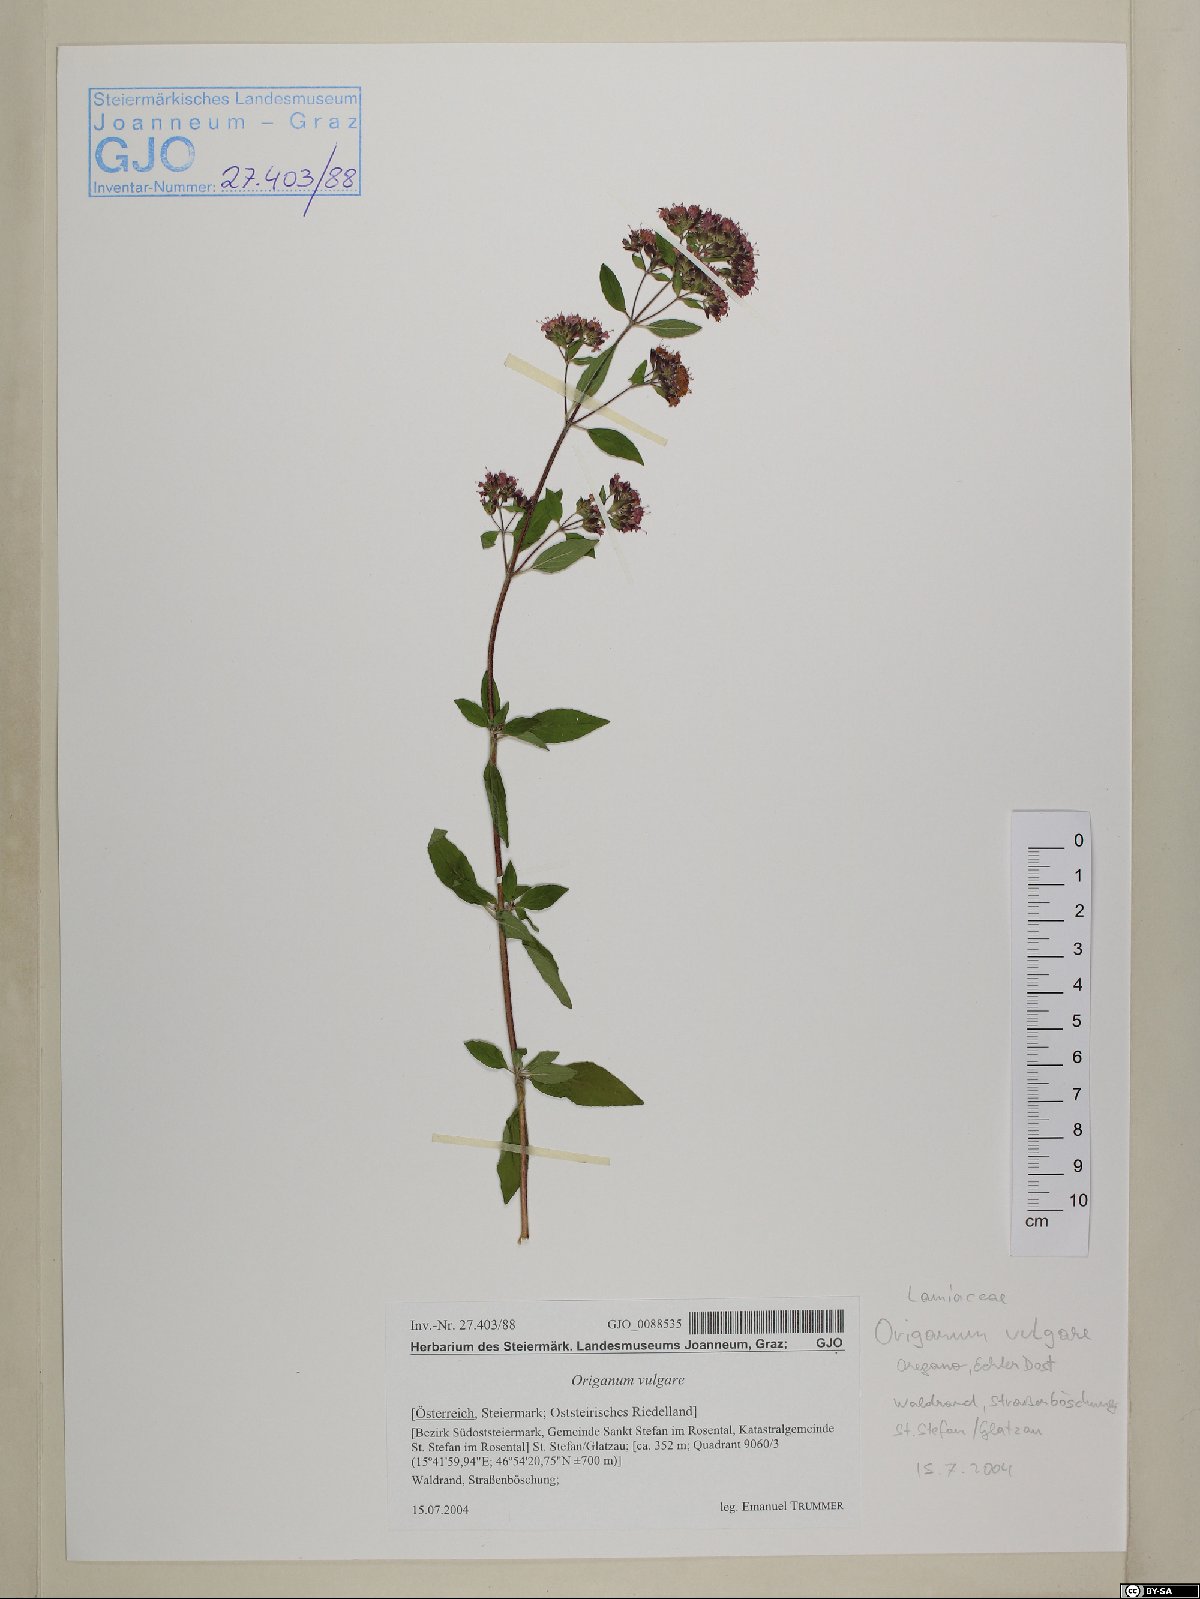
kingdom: Plantae
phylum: Tracheophyta
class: Magnoliopsida
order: Lamiales
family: Lamiaceae
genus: Origanum
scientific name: Origanum vulgare
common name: Wild marjoram
